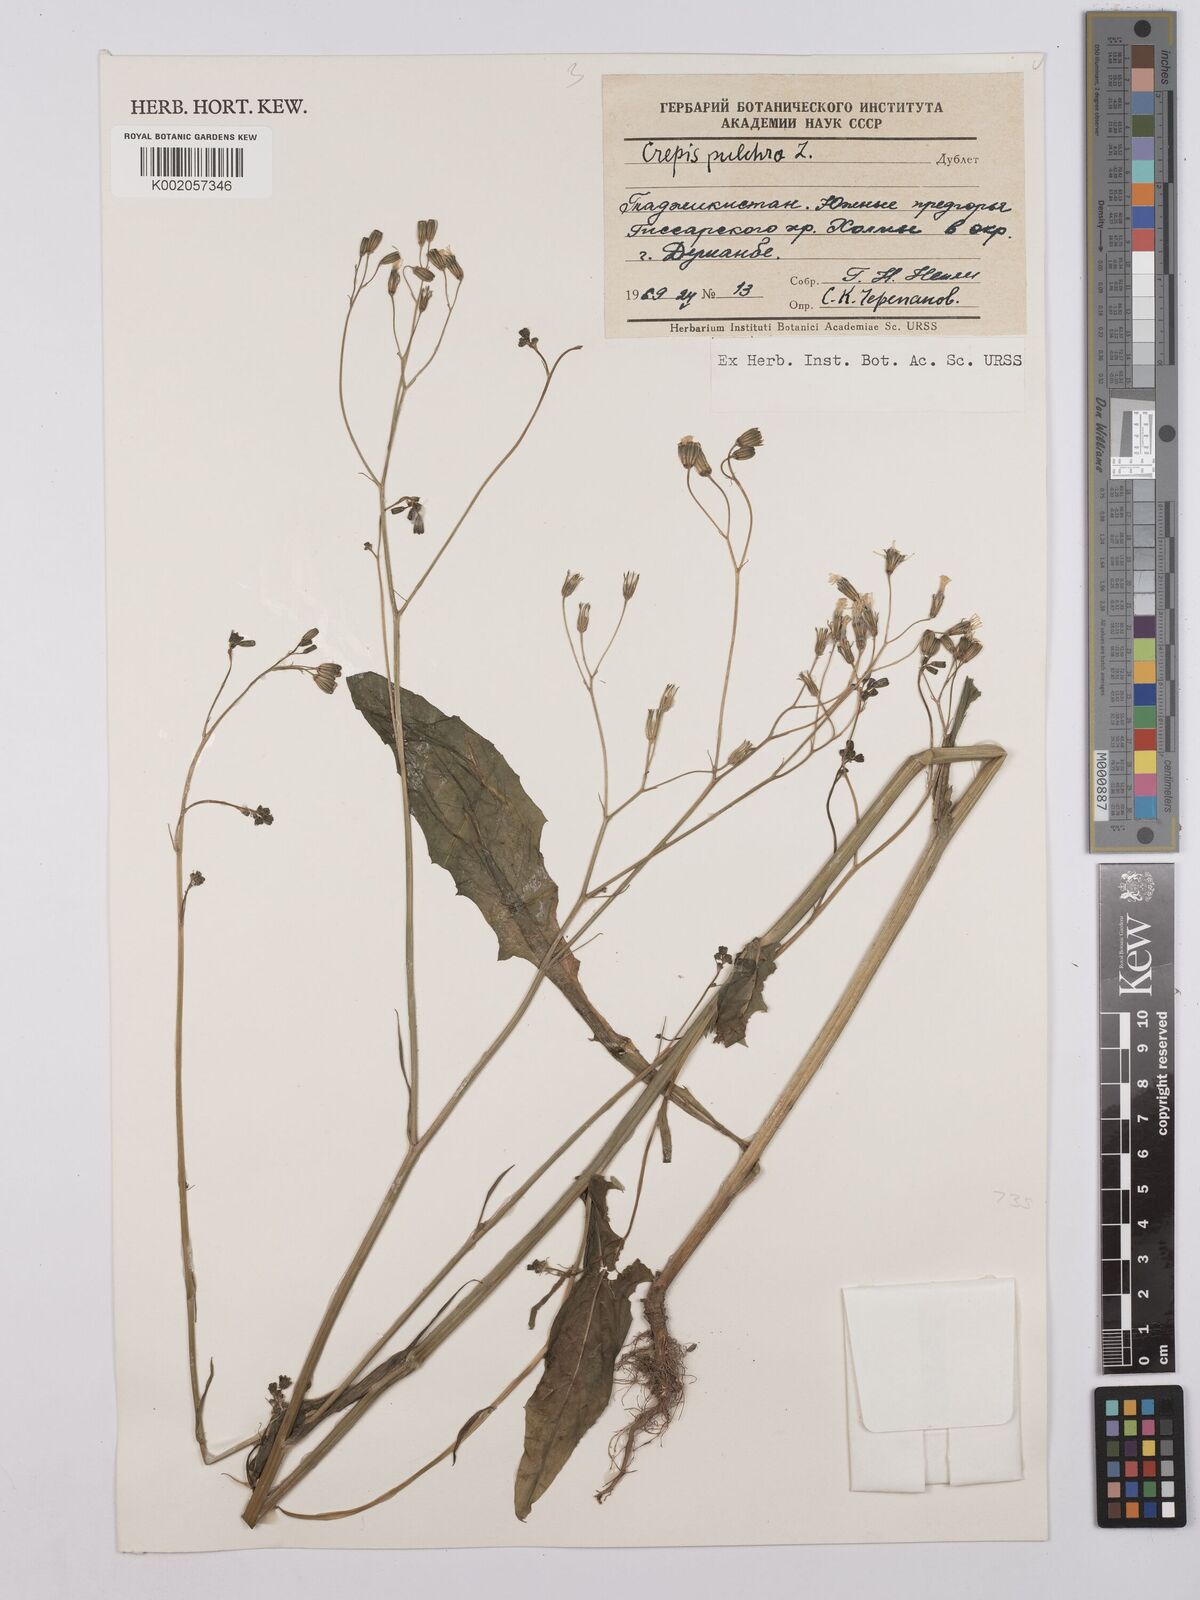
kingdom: Plantae
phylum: Tracheophyta
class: Magnoliopsida
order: Asterales
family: Asteraceae
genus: Crepis
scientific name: Crepis pulchra
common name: Hawk's-beard
